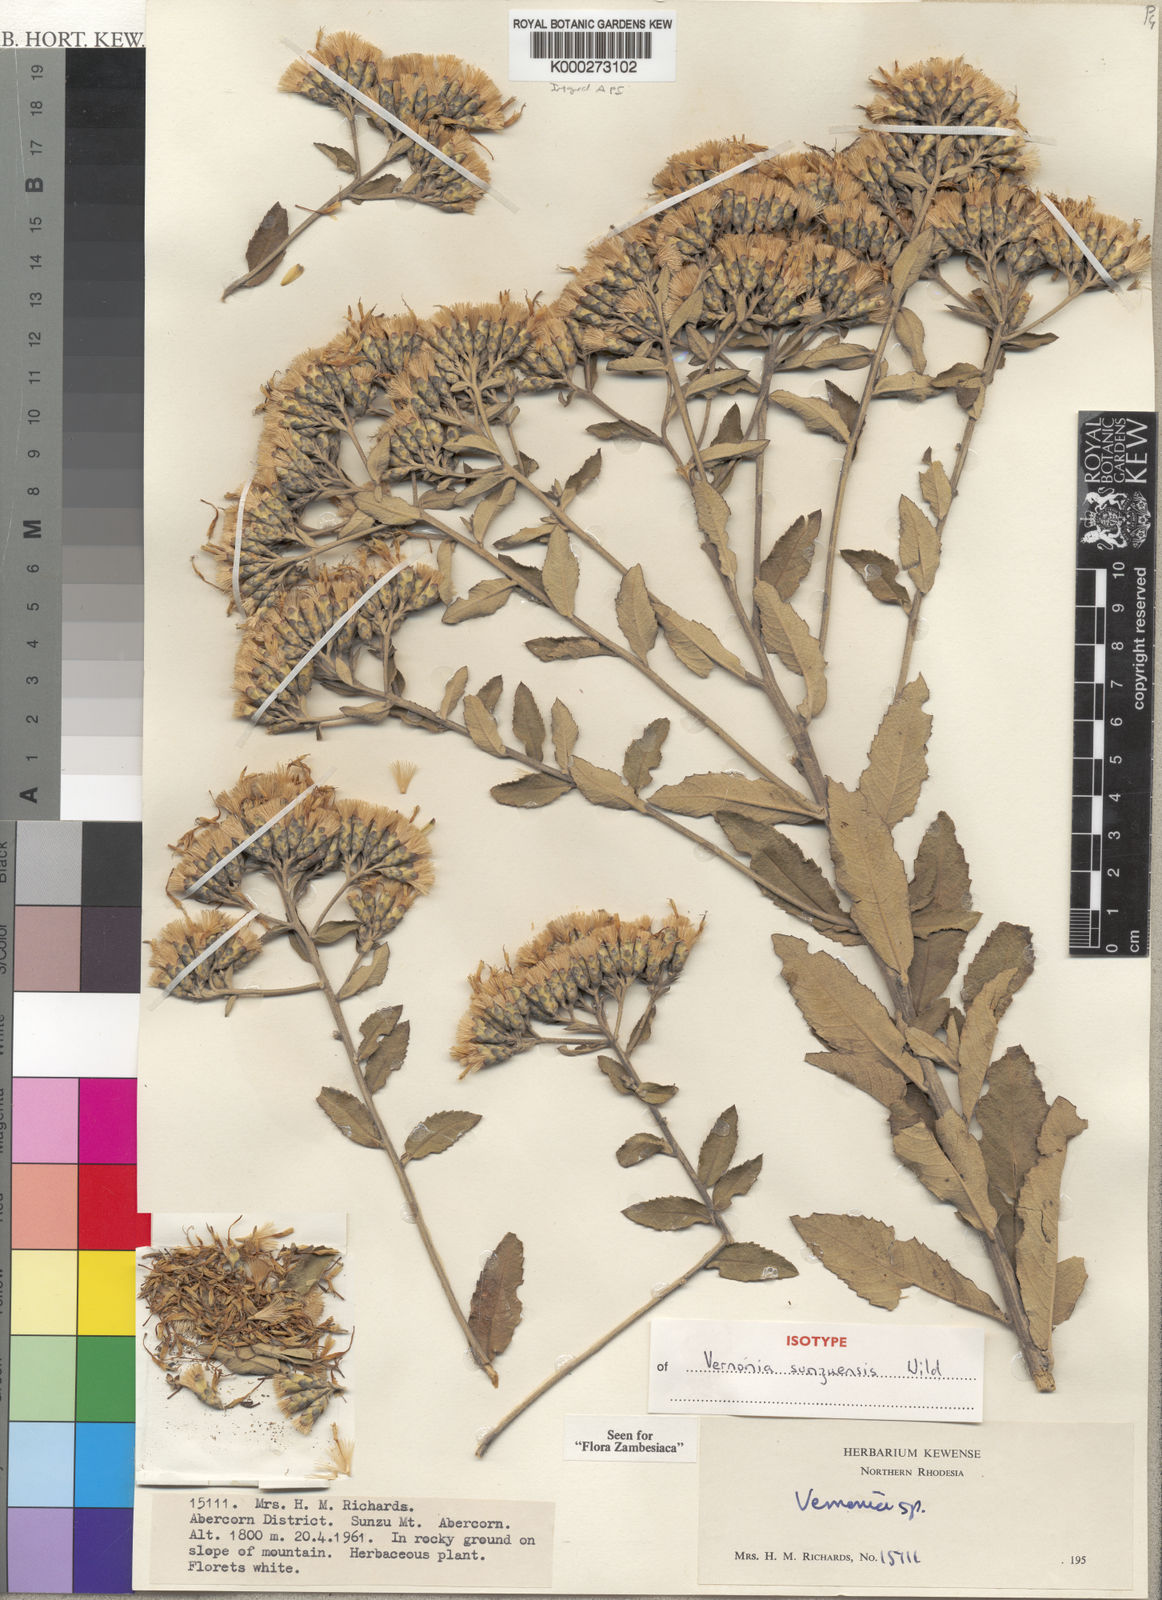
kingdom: Plantae
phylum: Tracheophyta
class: Magnoliopsida
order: Asterales
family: Asteraceae
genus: Baccharoides
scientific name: Baccharoides sunzuensis
